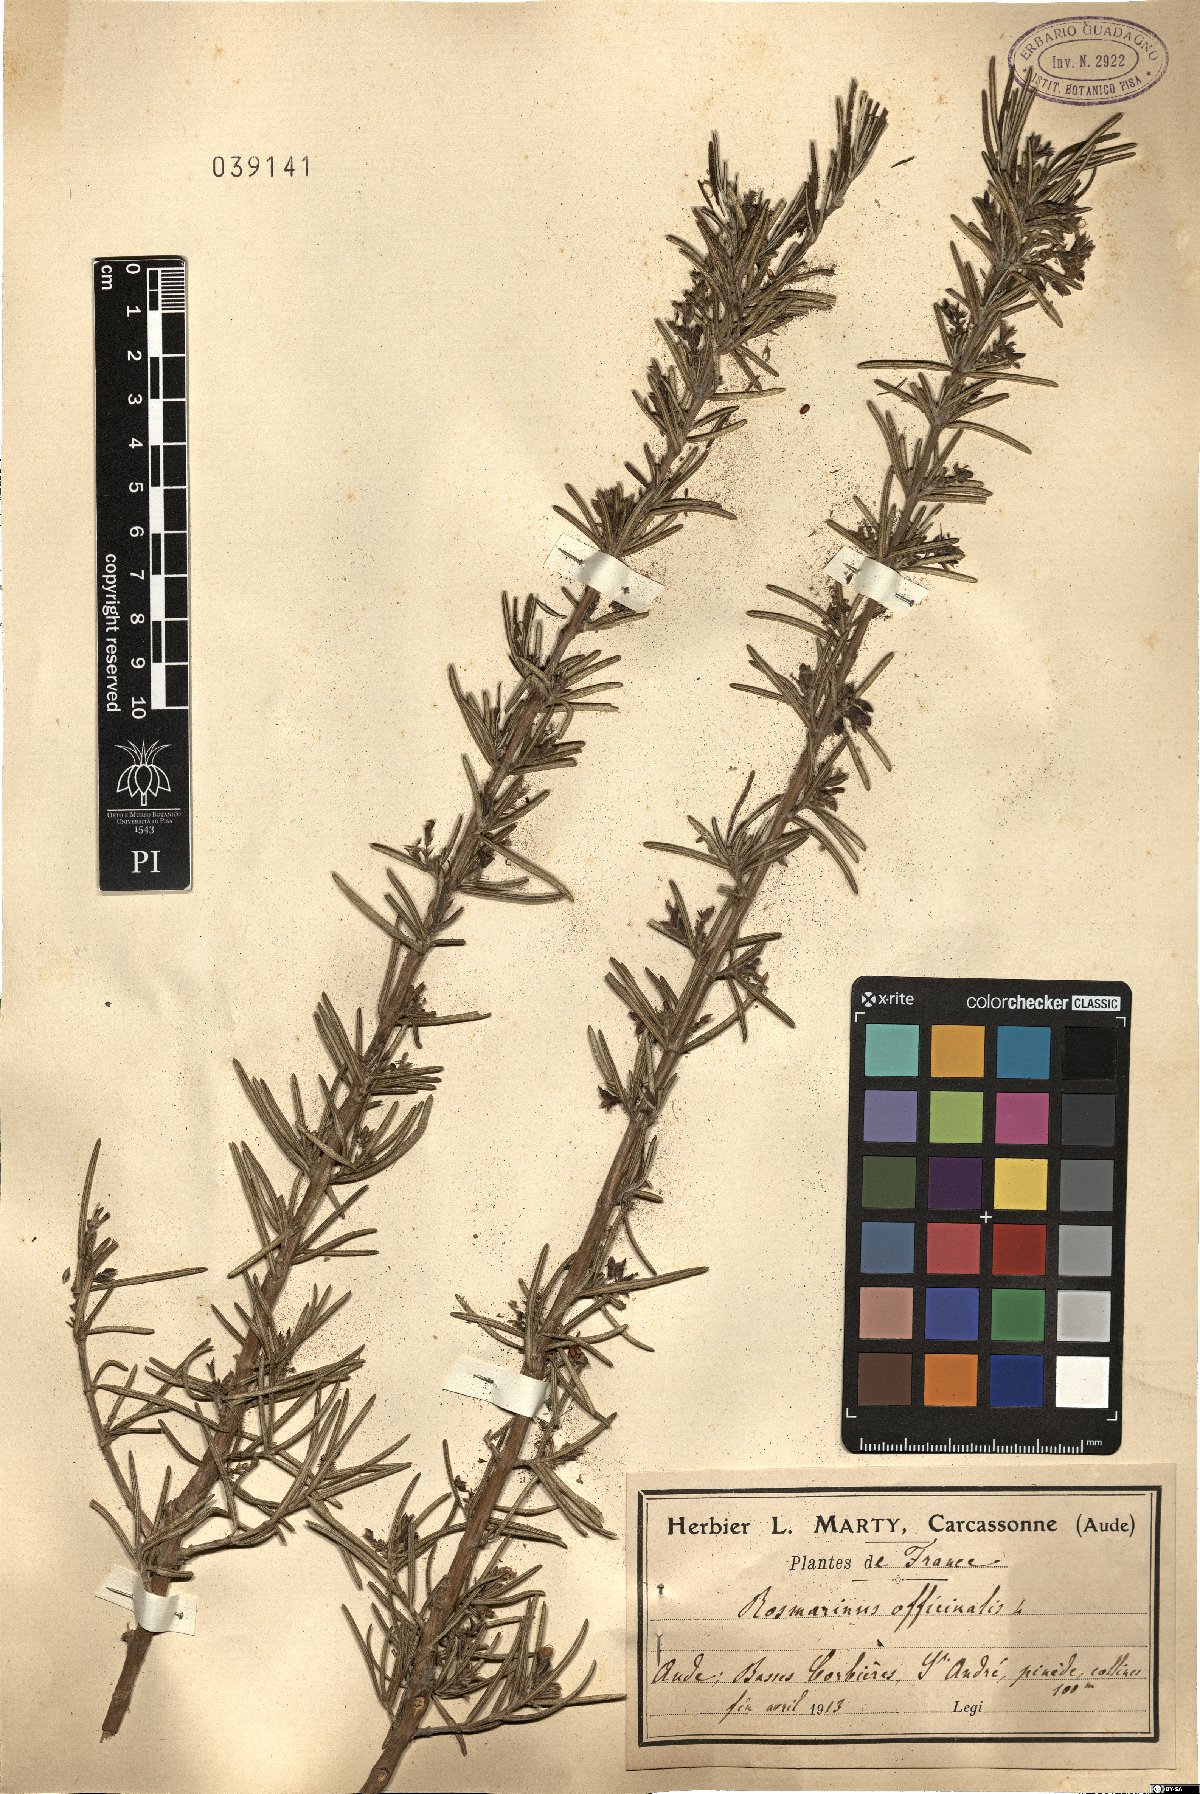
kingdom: Plantae
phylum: Tracheophyta
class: Magnoliopsida
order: Lamiales
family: Lamiaceae
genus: Salvia
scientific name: Salvia rosmarinus
